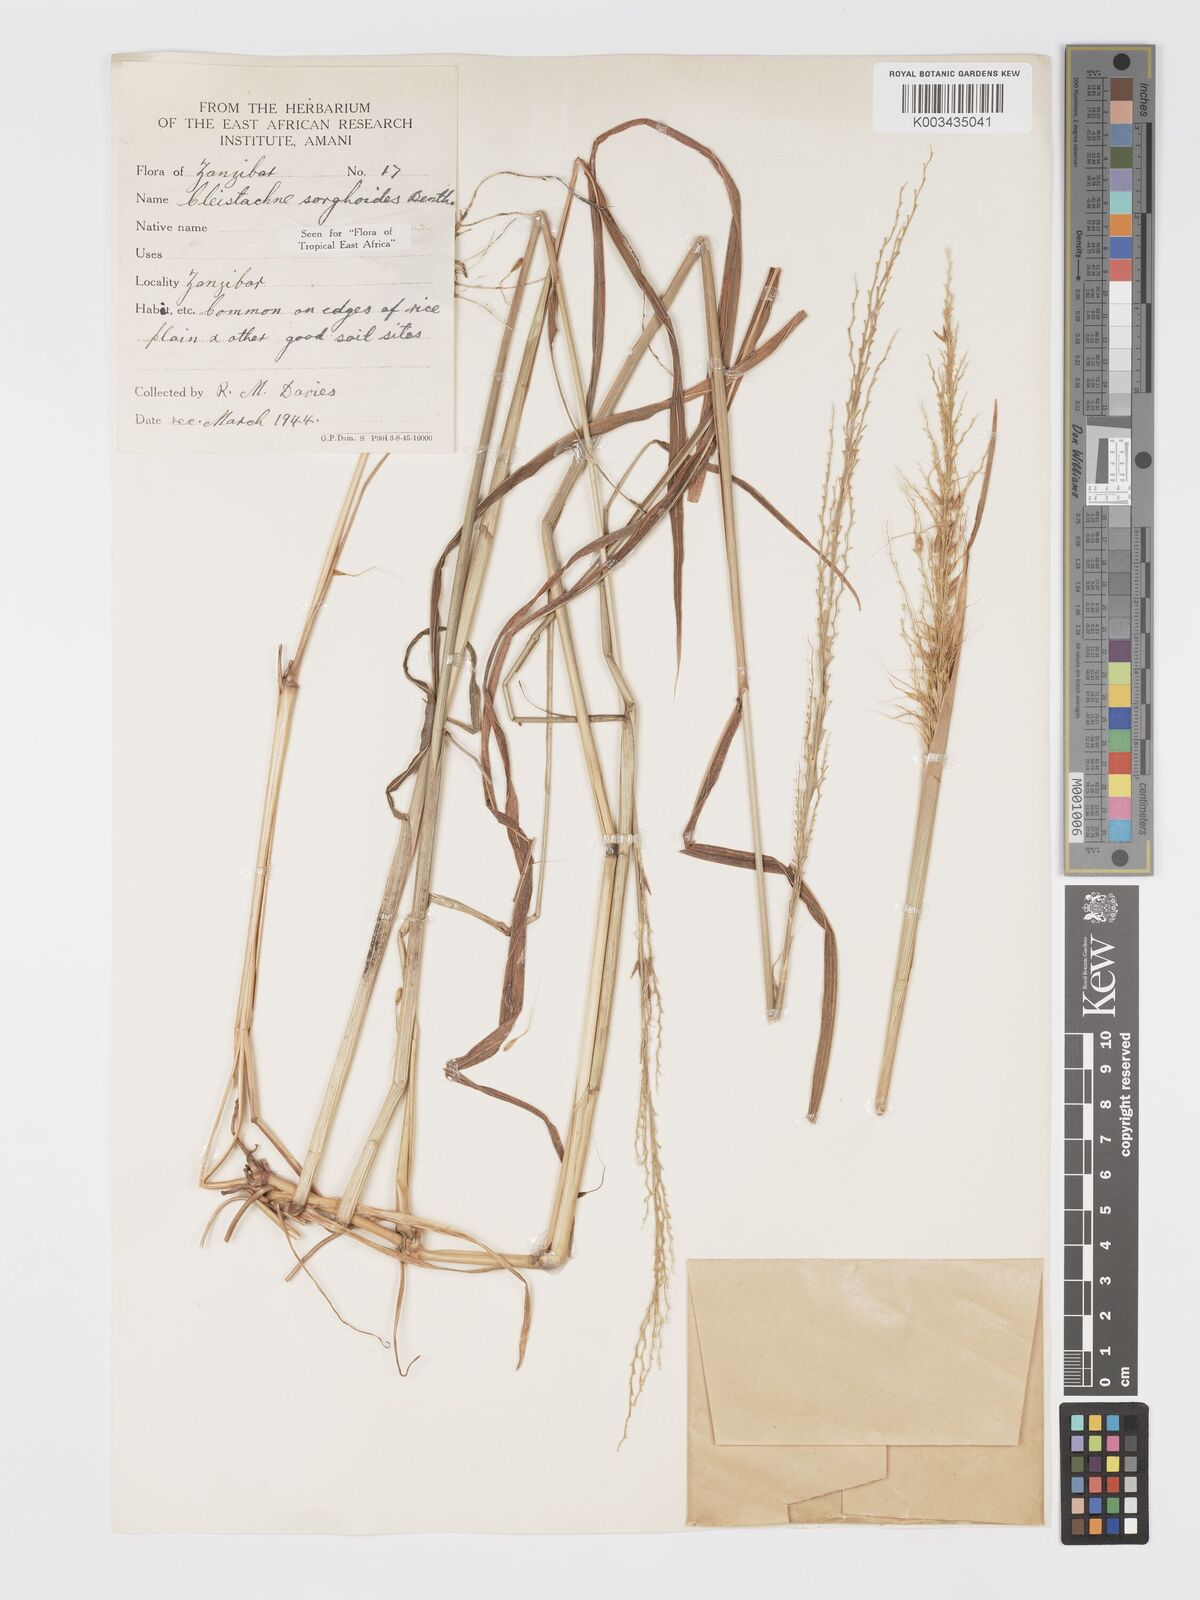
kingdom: Plantae
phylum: Tracheophyta
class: Liliopsida
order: Poales
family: Poaceae
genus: Cleistachne
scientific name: Cleistachne sorghoides
